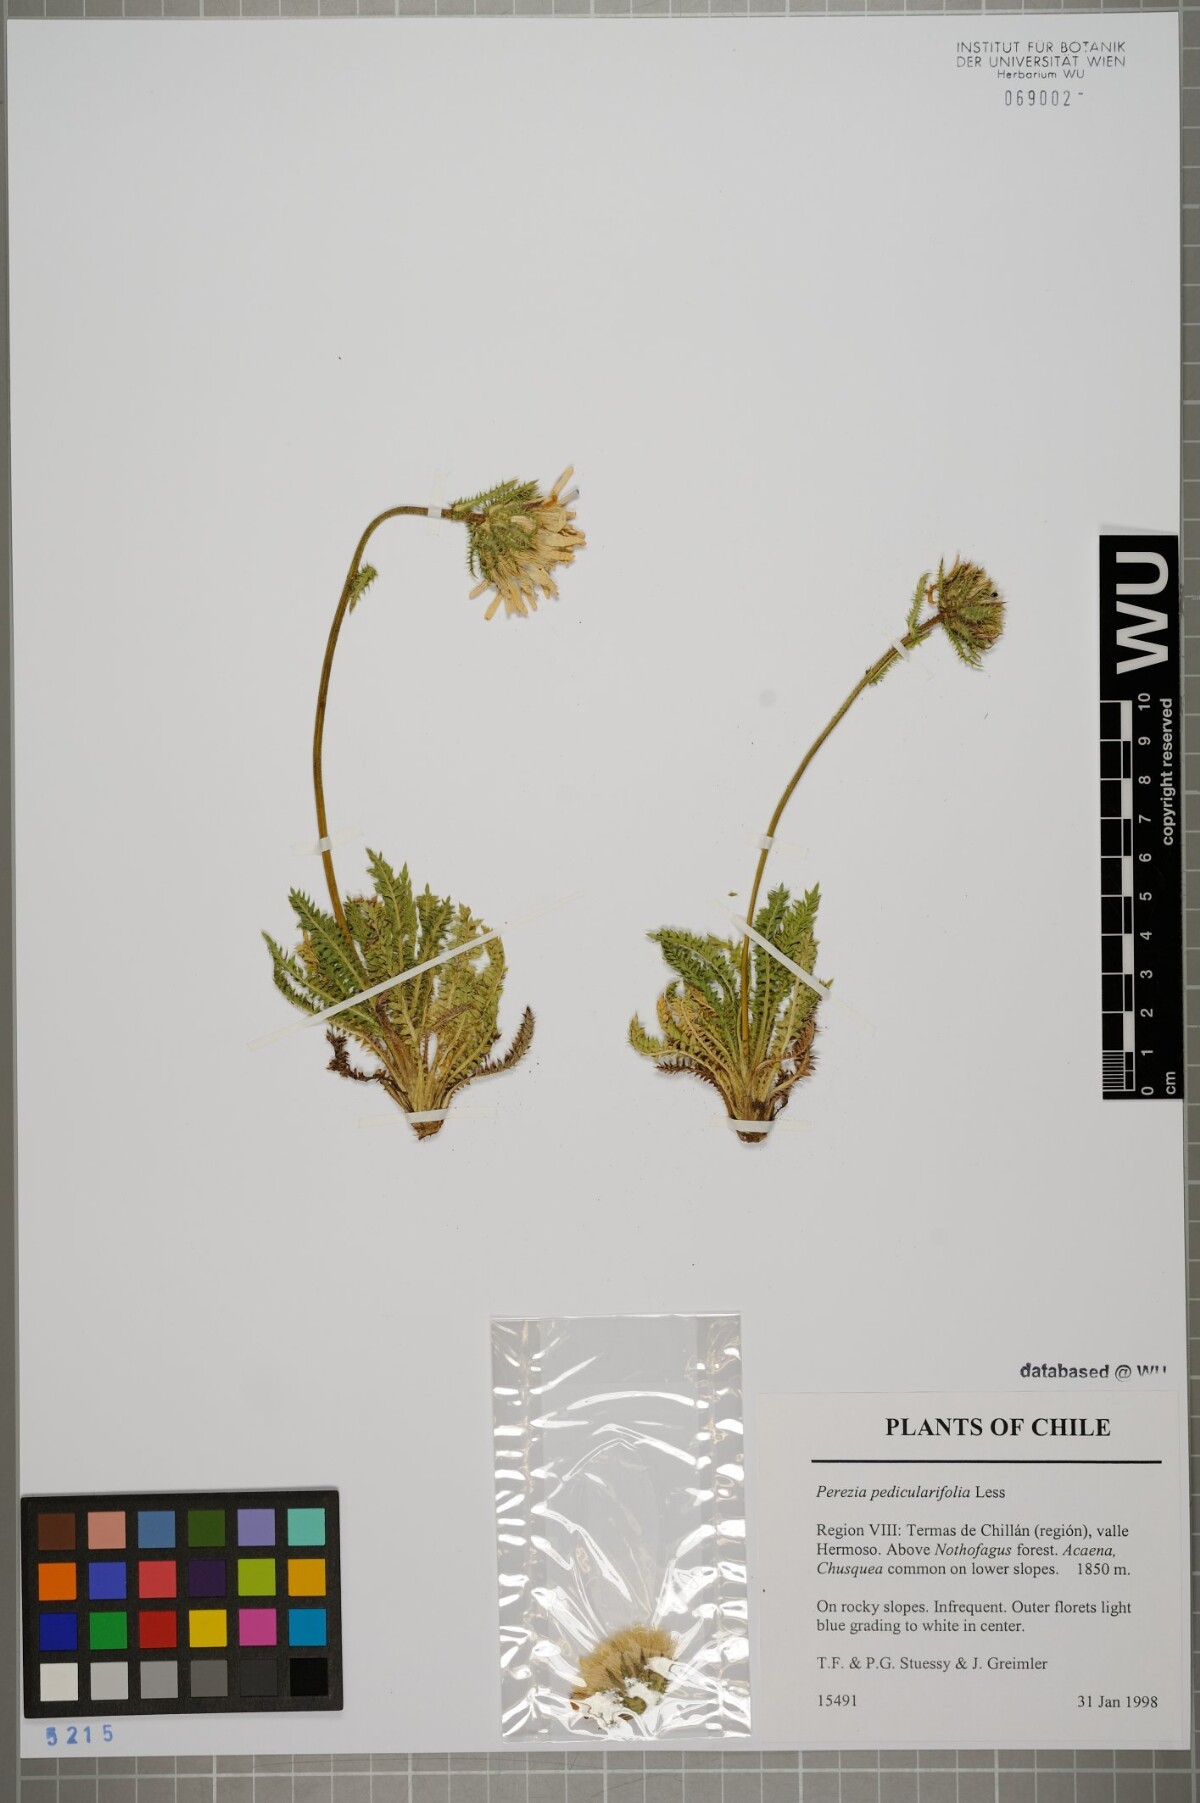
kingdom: Plantae
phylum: Tracheophyta
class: Magnoliopsida
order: Asterales
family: Asteraceae
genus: Perezia
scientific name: Perezia pedicularidifolia
